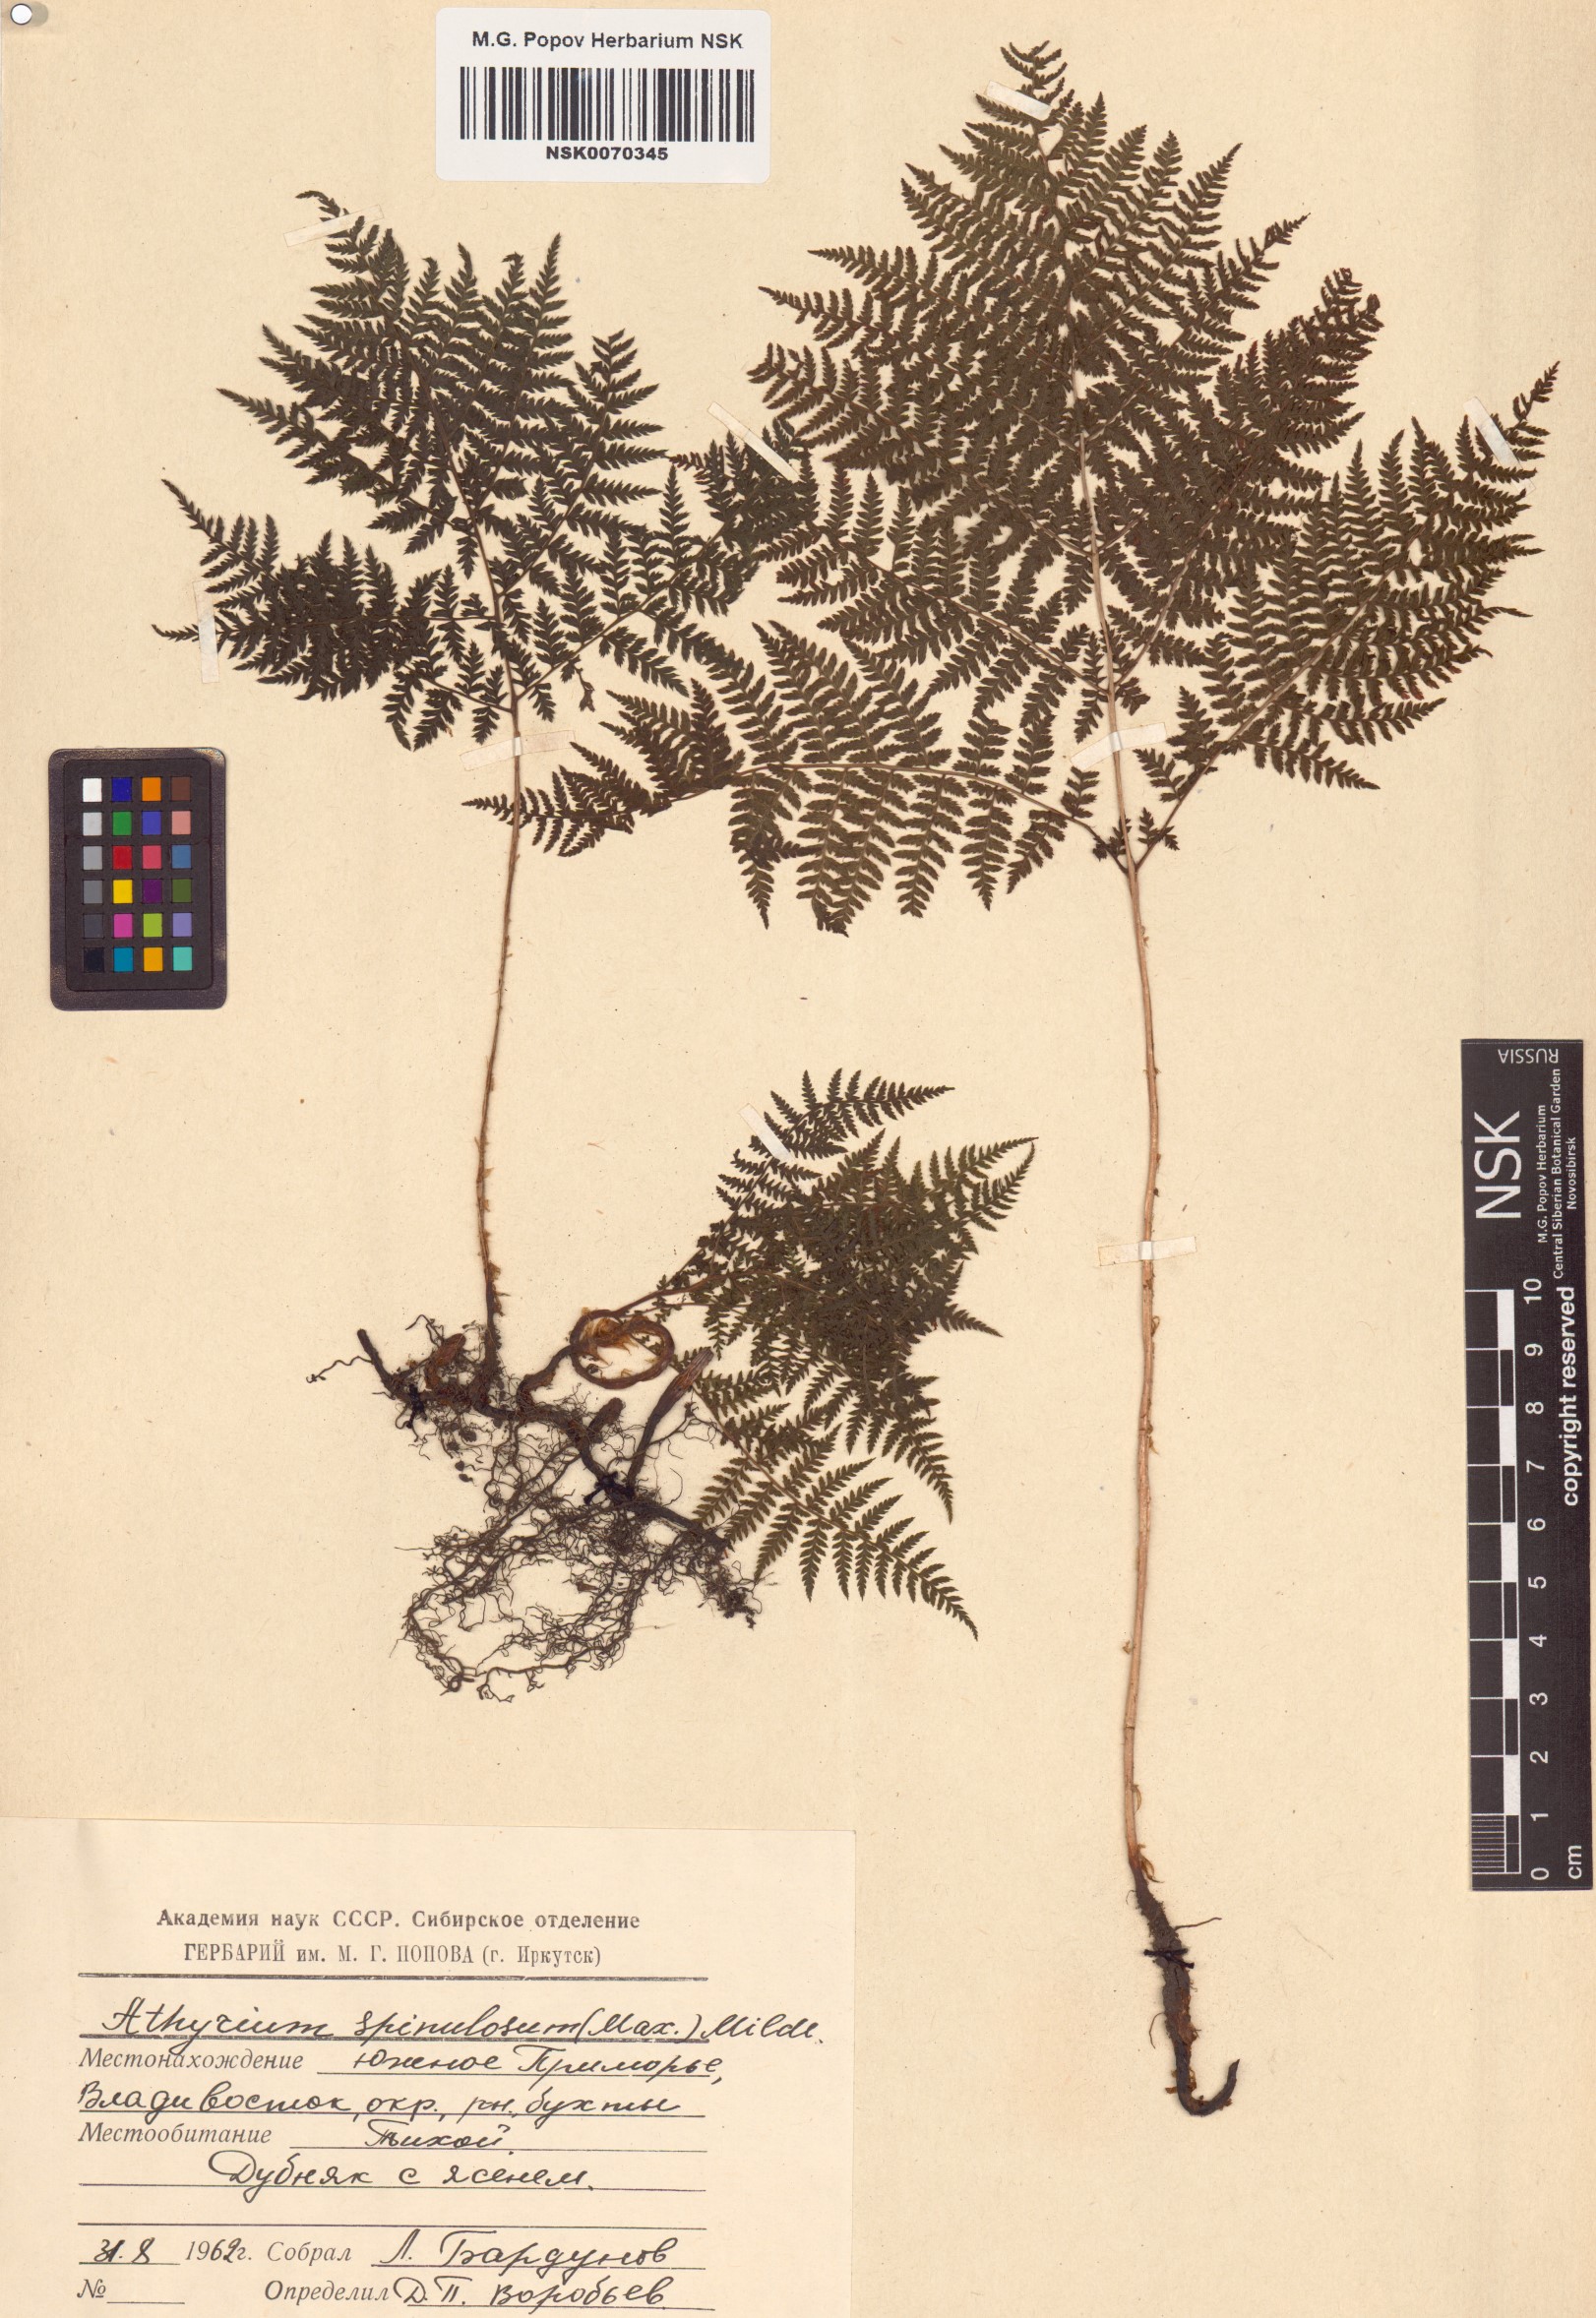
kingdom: Plantae
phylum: Tracheophyta
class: Polypodiopsida
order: Polypodiales
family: Athyriaceae
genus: Athyrium
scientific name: Athyrium spinulosum
